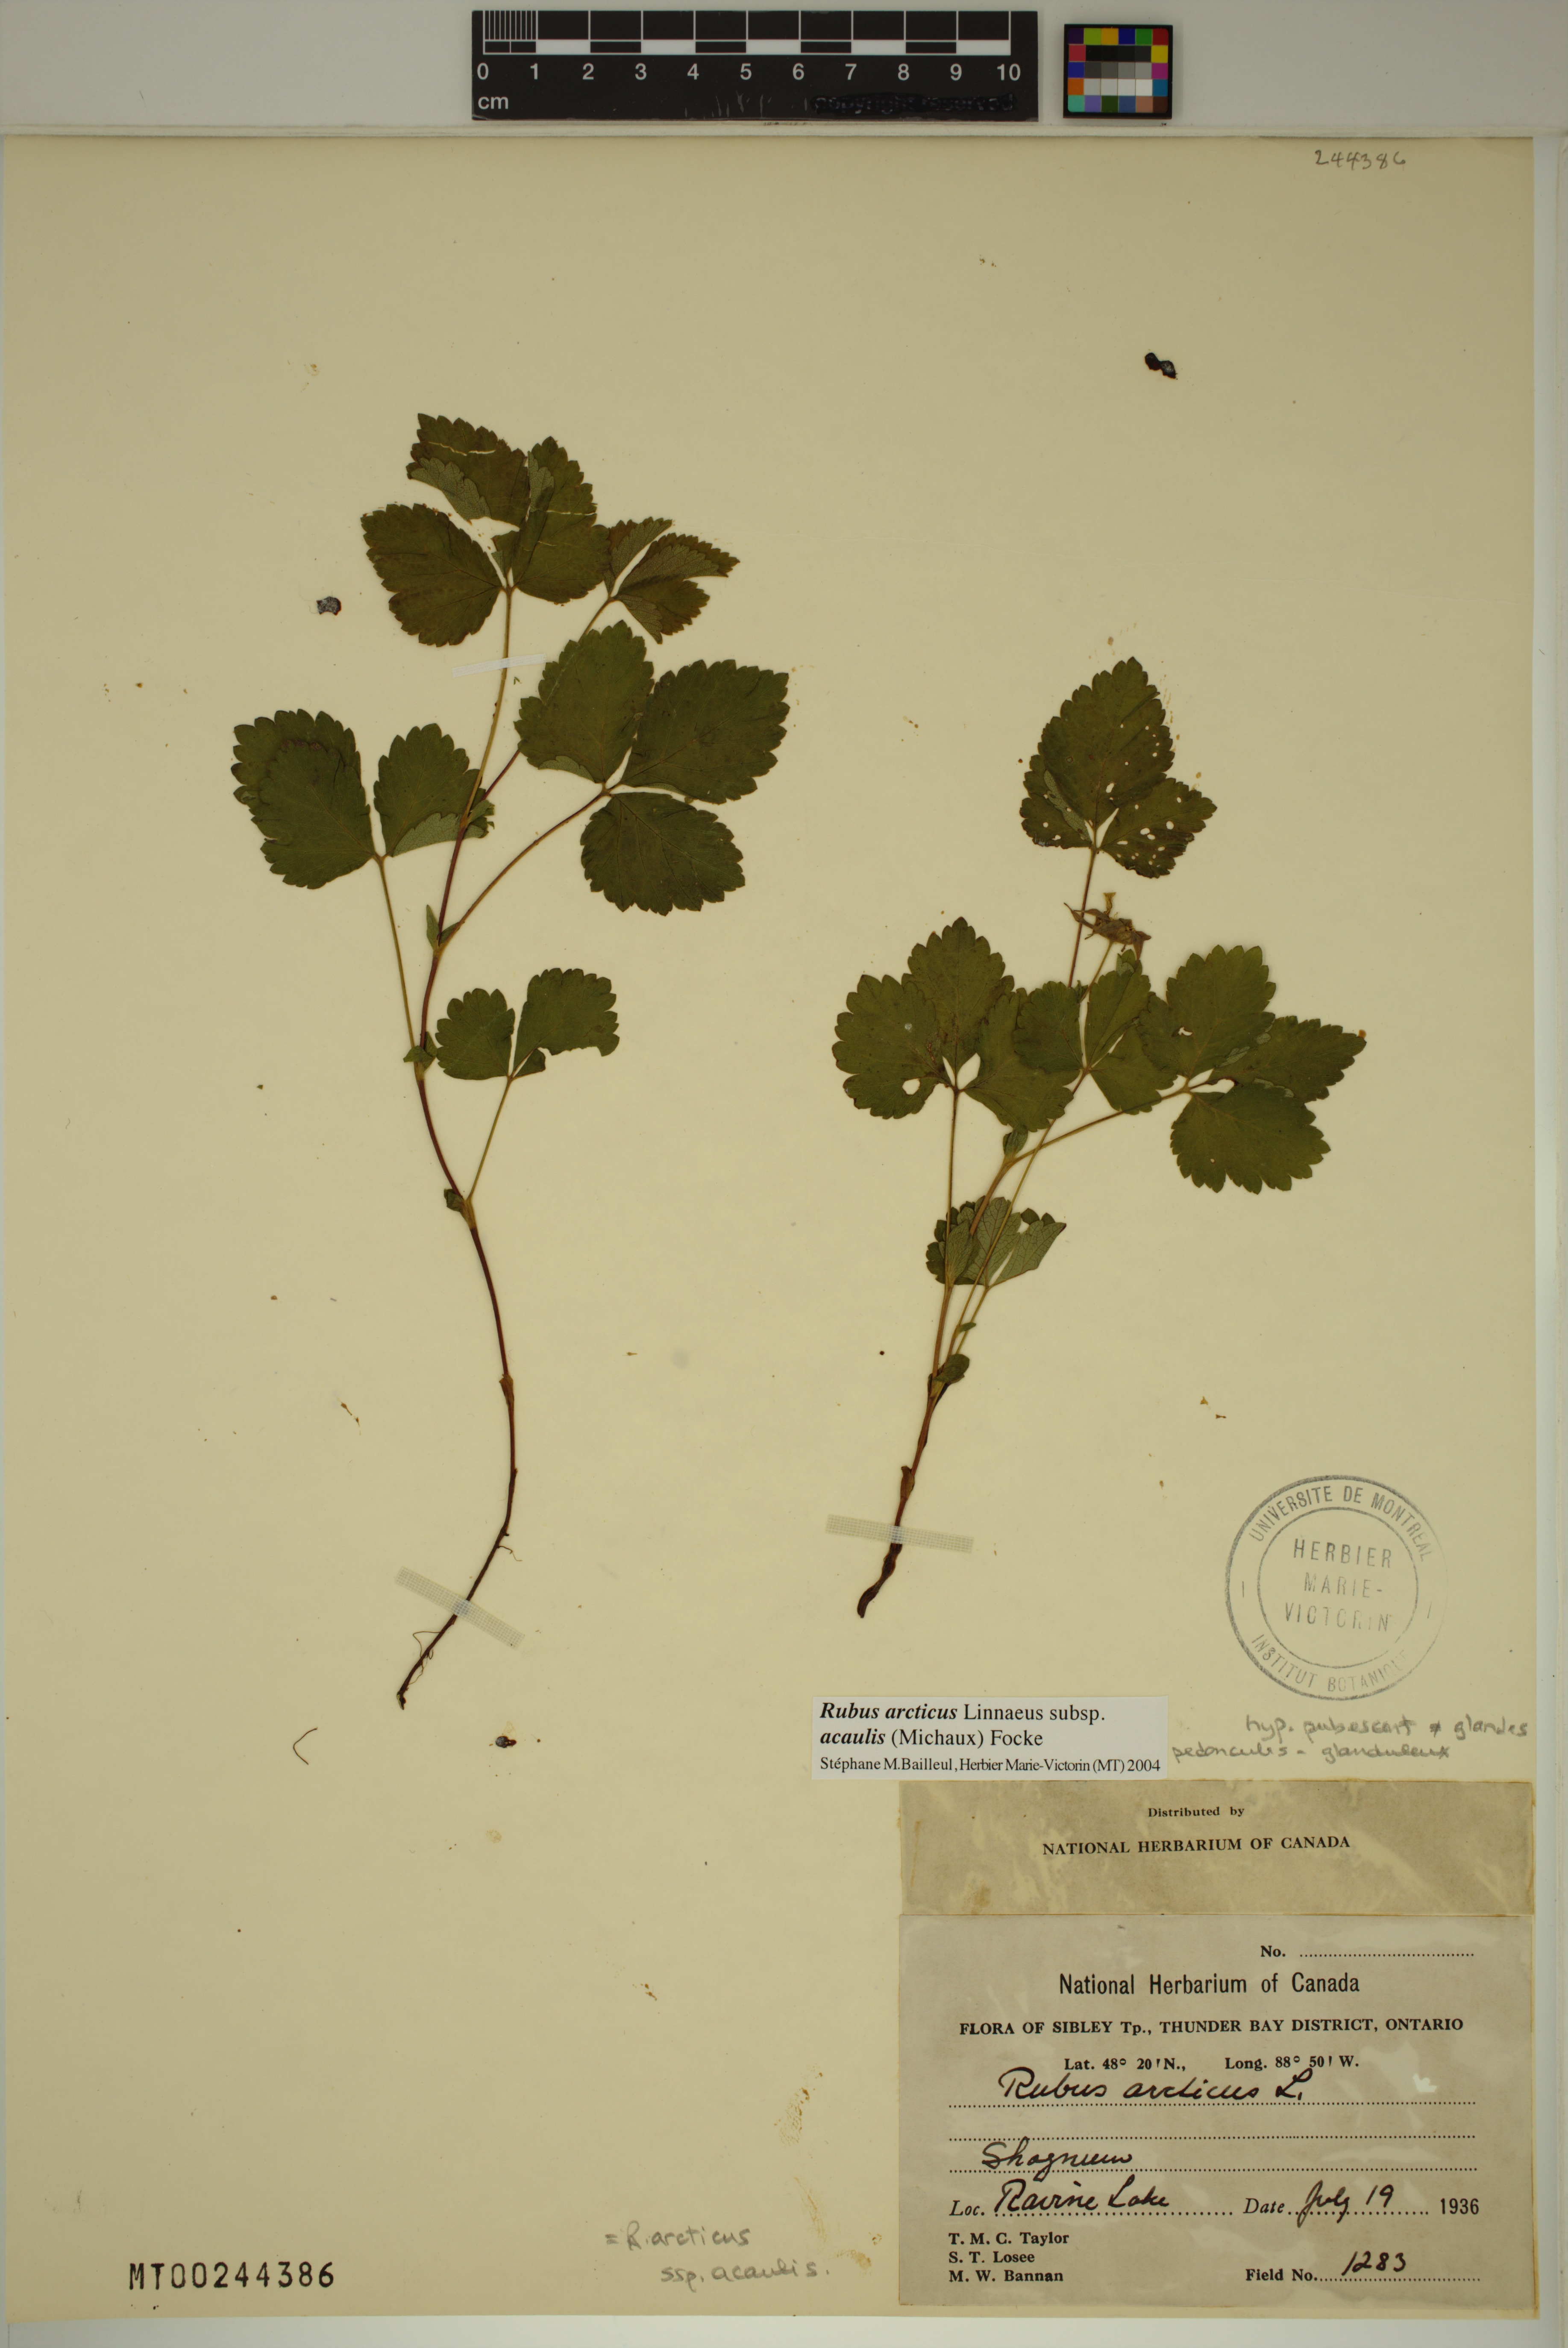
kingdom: Plantae
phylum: Tracheophyta
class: Magnoliopsida
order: Rosales
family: Rosaceae
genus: Rubus
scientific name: Rubus arcticus
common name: Arctic bramble
